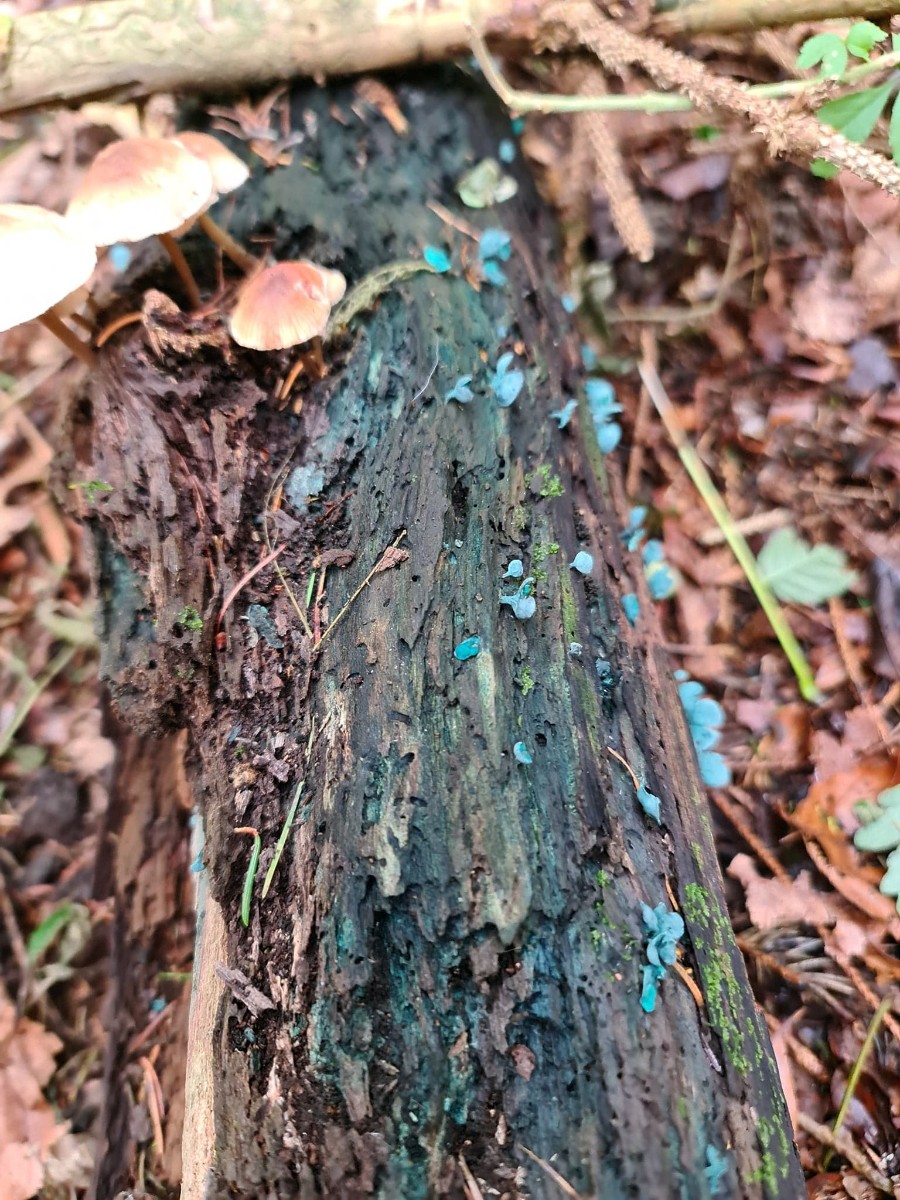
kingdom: Fungi
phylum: Ascomycota
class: Leotiomycetes
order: Helotiales
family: Chlorociboriaceae
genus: Chlorociboria
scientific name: Chlorociboria aeruginascens
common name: almindelig grønskive
